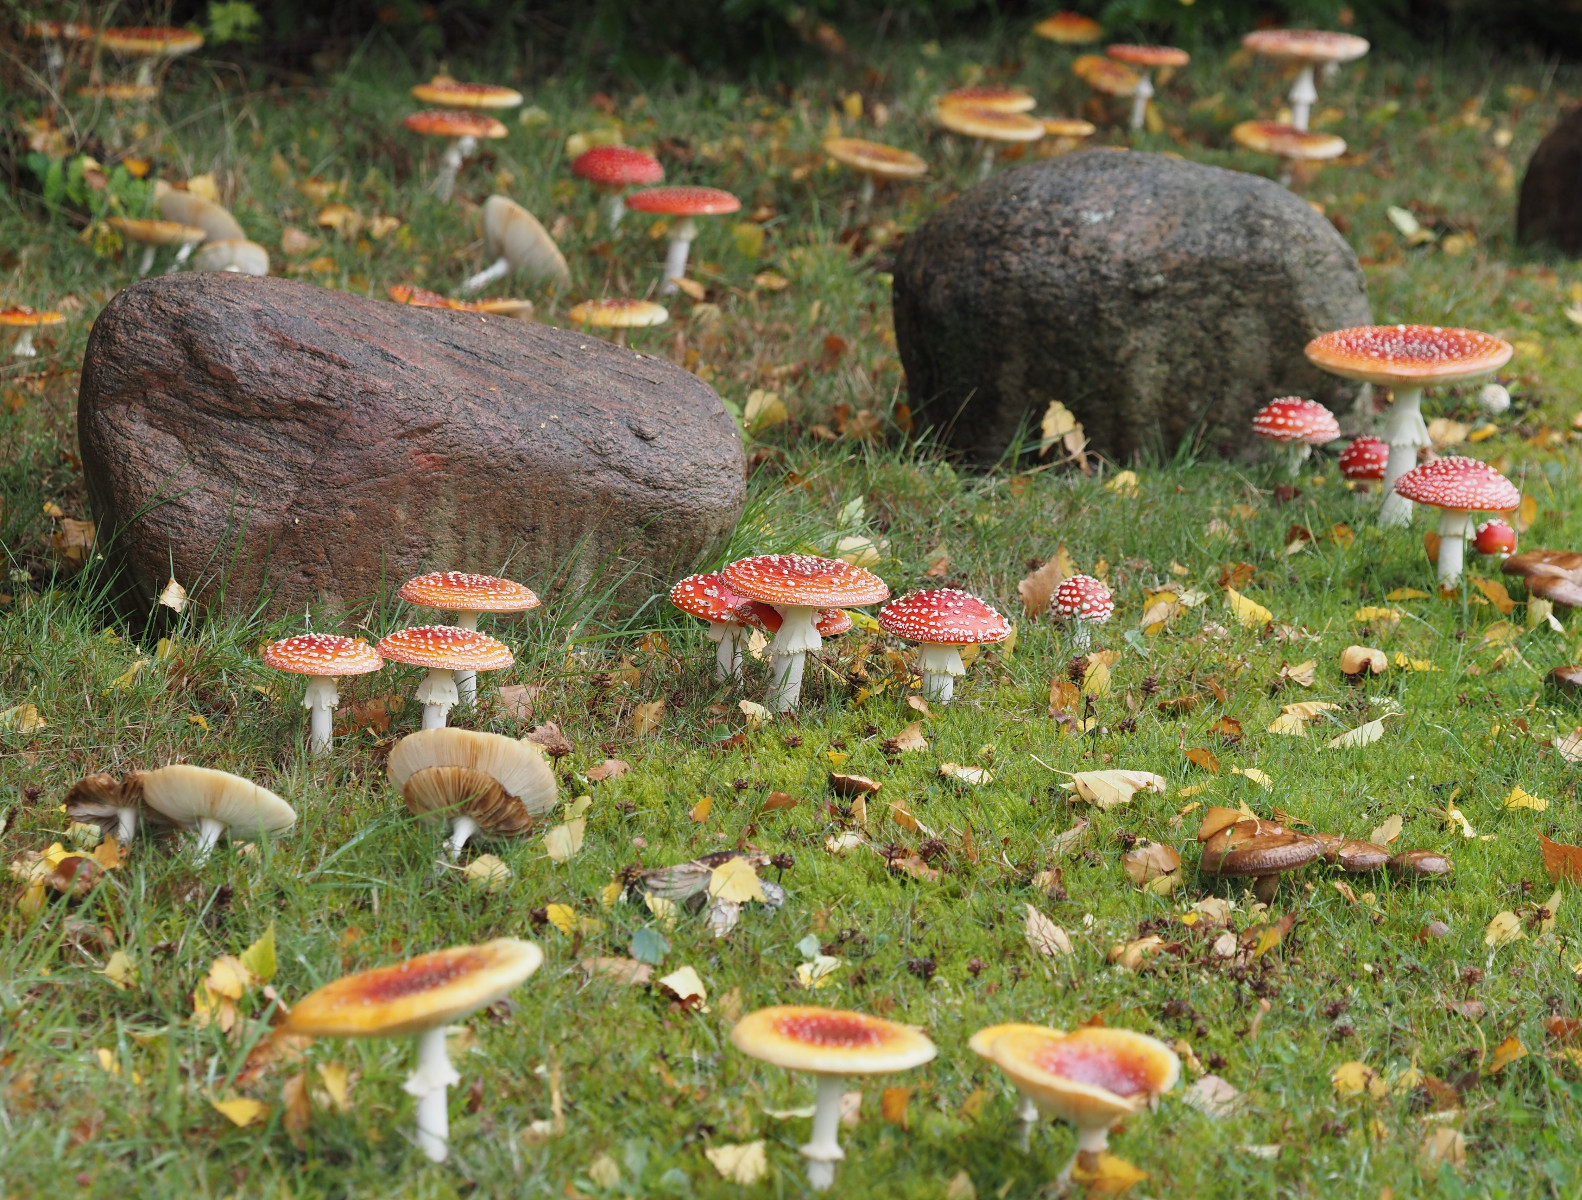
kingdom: Fungi
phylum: Basidiomycota
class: Agaricomycetes
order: Agaricales
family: Amanitaceae
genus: Amanita
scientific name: Amanita muscaria
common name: rød fluesvamp
